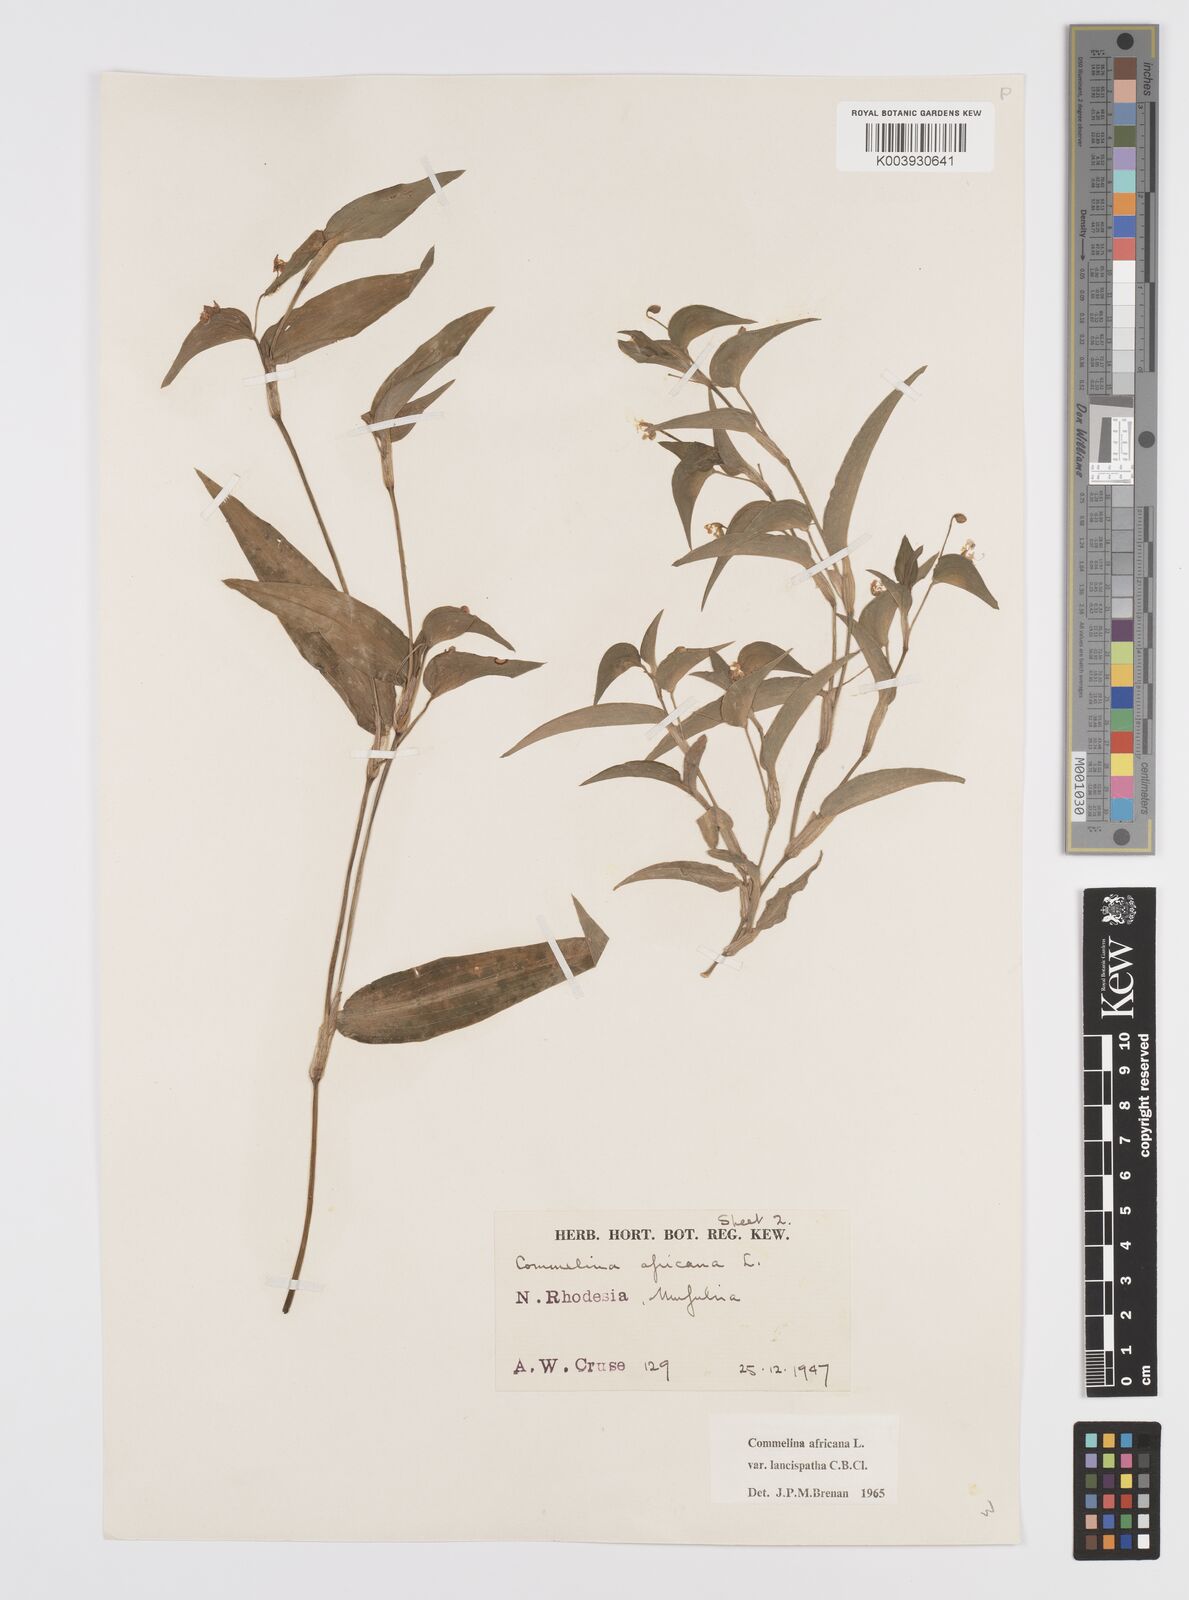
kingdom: Plantae
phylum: Tracheophyta
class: Liliopsida
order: Commelinales
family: Commelinaceae
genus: Commelina
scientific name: Commelina africana
